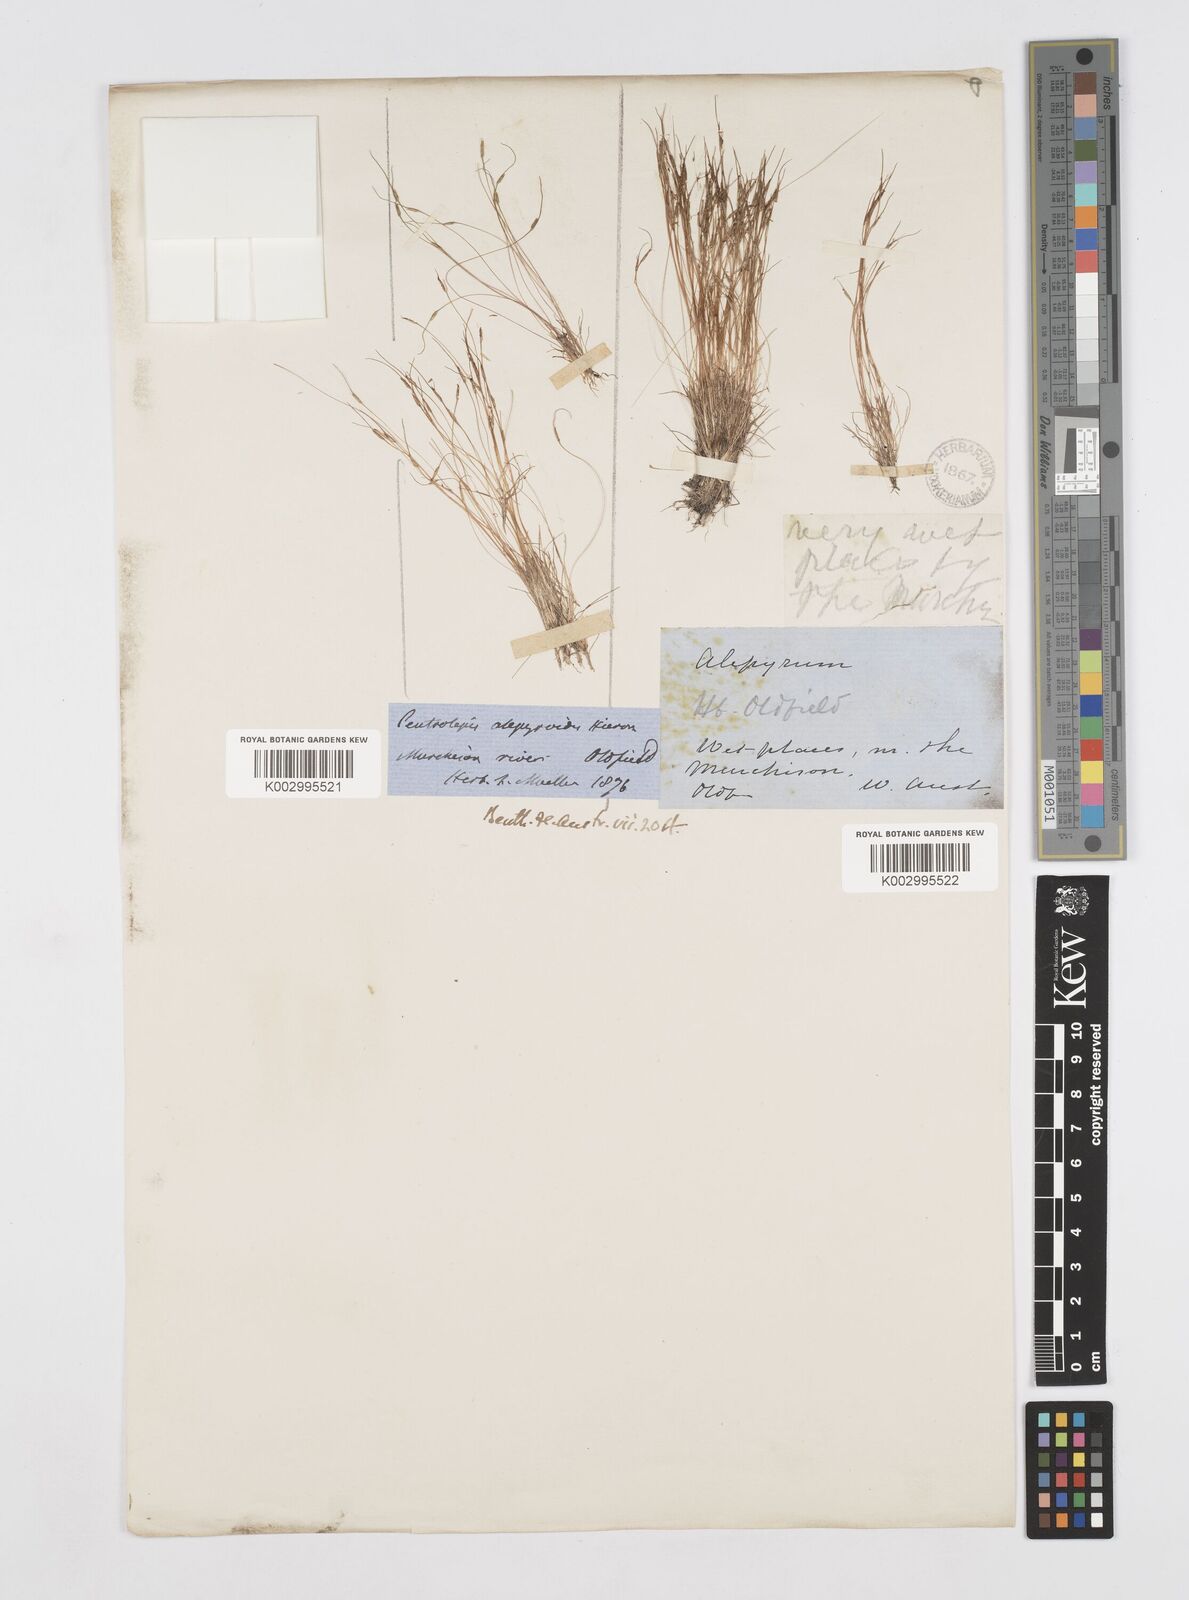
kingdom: Plantae
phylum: Tracheophyta
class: Liliopsida
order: Poales
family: Restionaceae
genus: Centrolepis
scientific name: Centrolepis alepyroides
